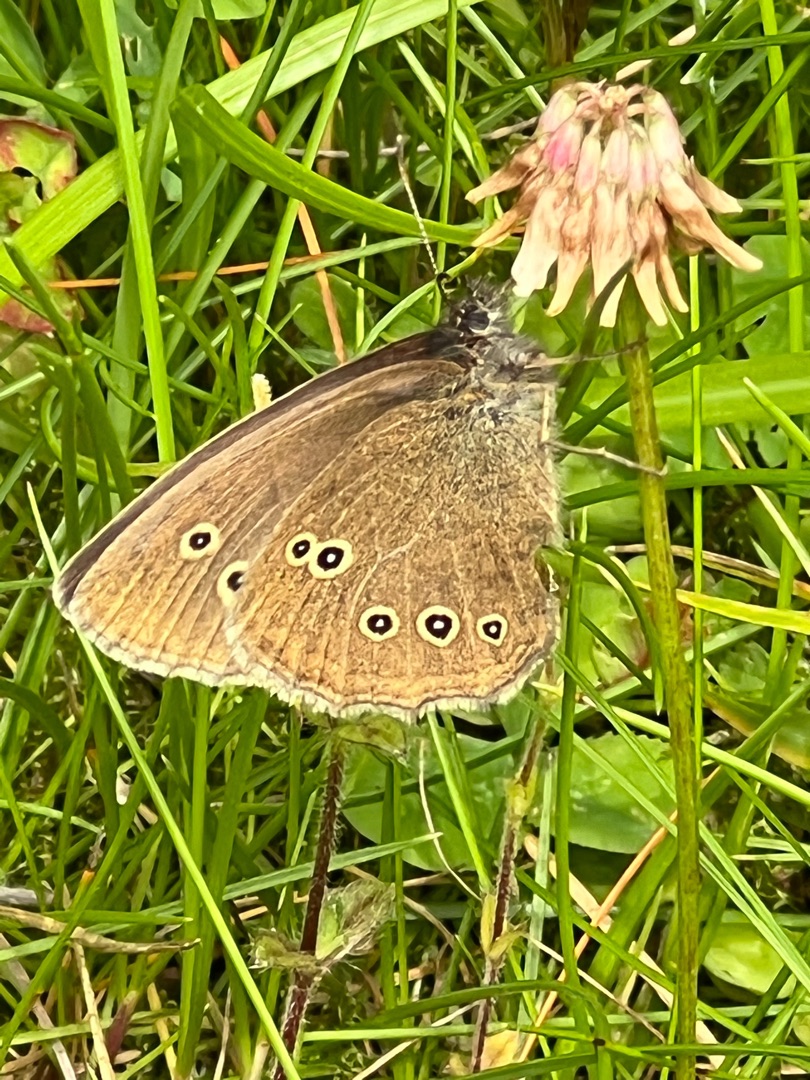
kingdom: Animalia
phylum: Arthropoda
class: Insecta
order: Lepidoptera
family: Nymphalidae
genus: Aphantopus
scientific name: Aphantopus hyperantus
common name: Engrandøje
